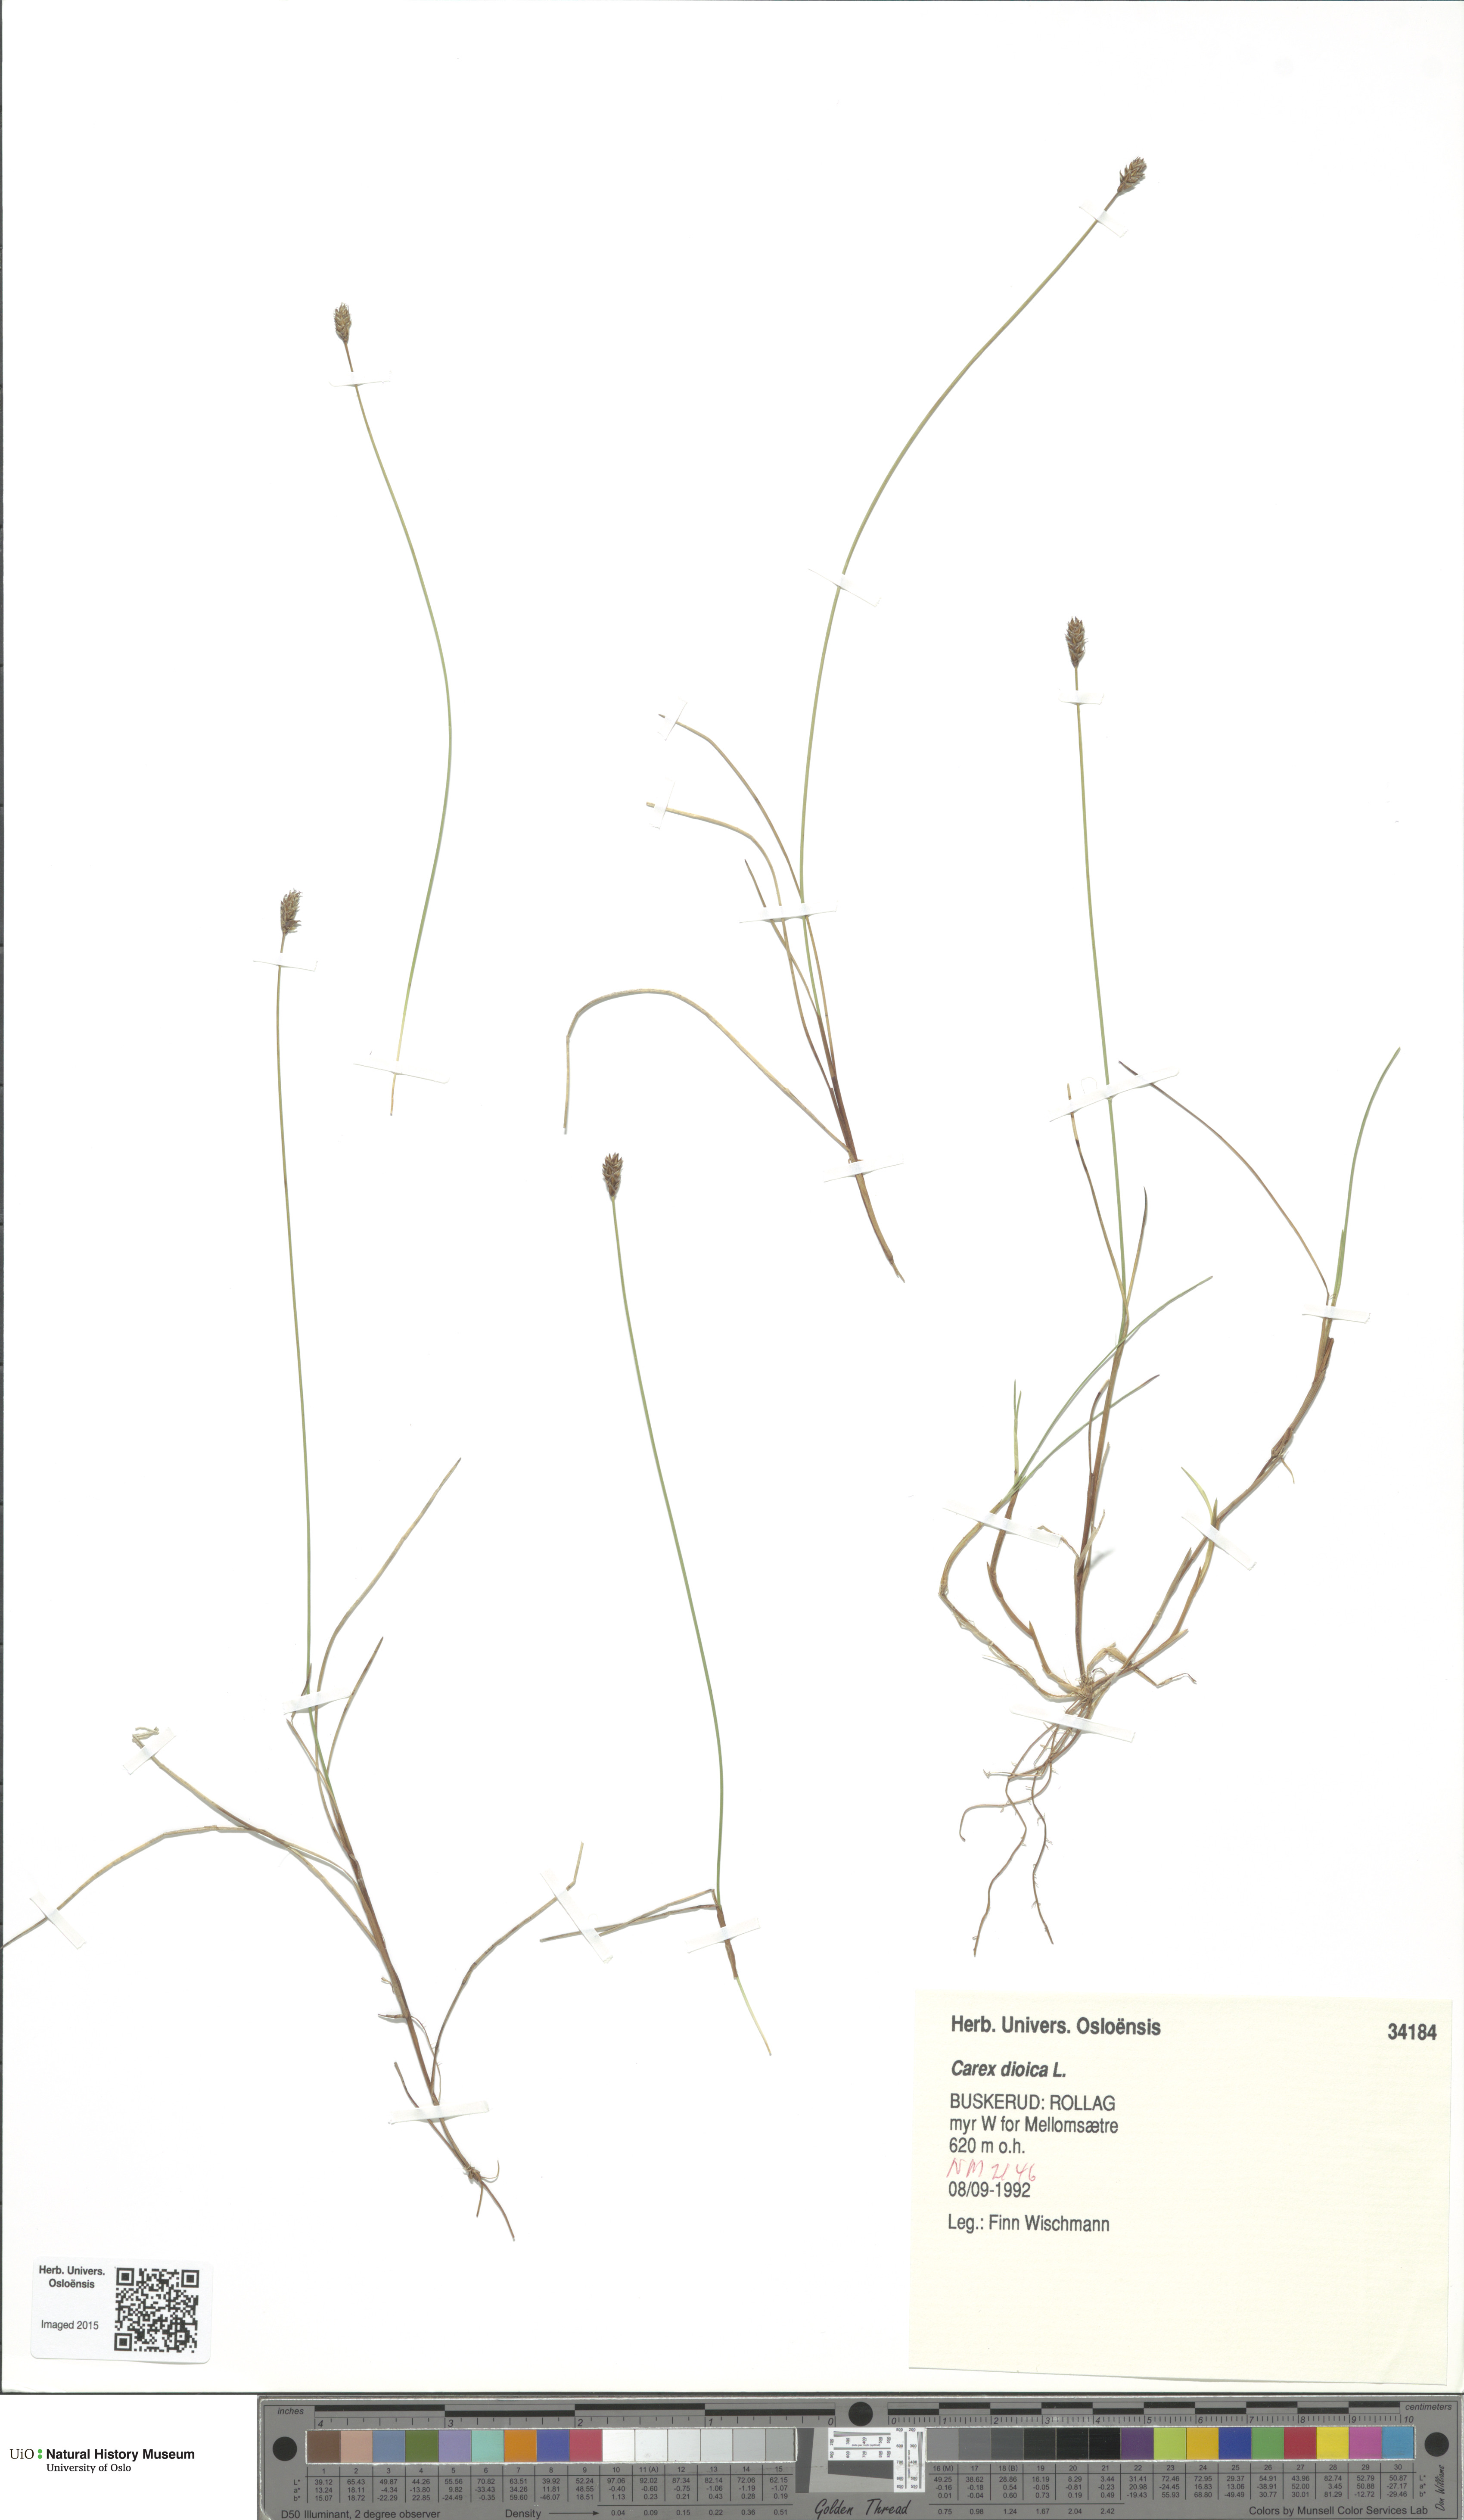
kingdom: Plantae
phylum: Tracheophyta
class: Liliopsida
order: Poales
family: Cyperaceae
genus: Carex
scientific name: Carex dioica
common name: Dioecious sedge
